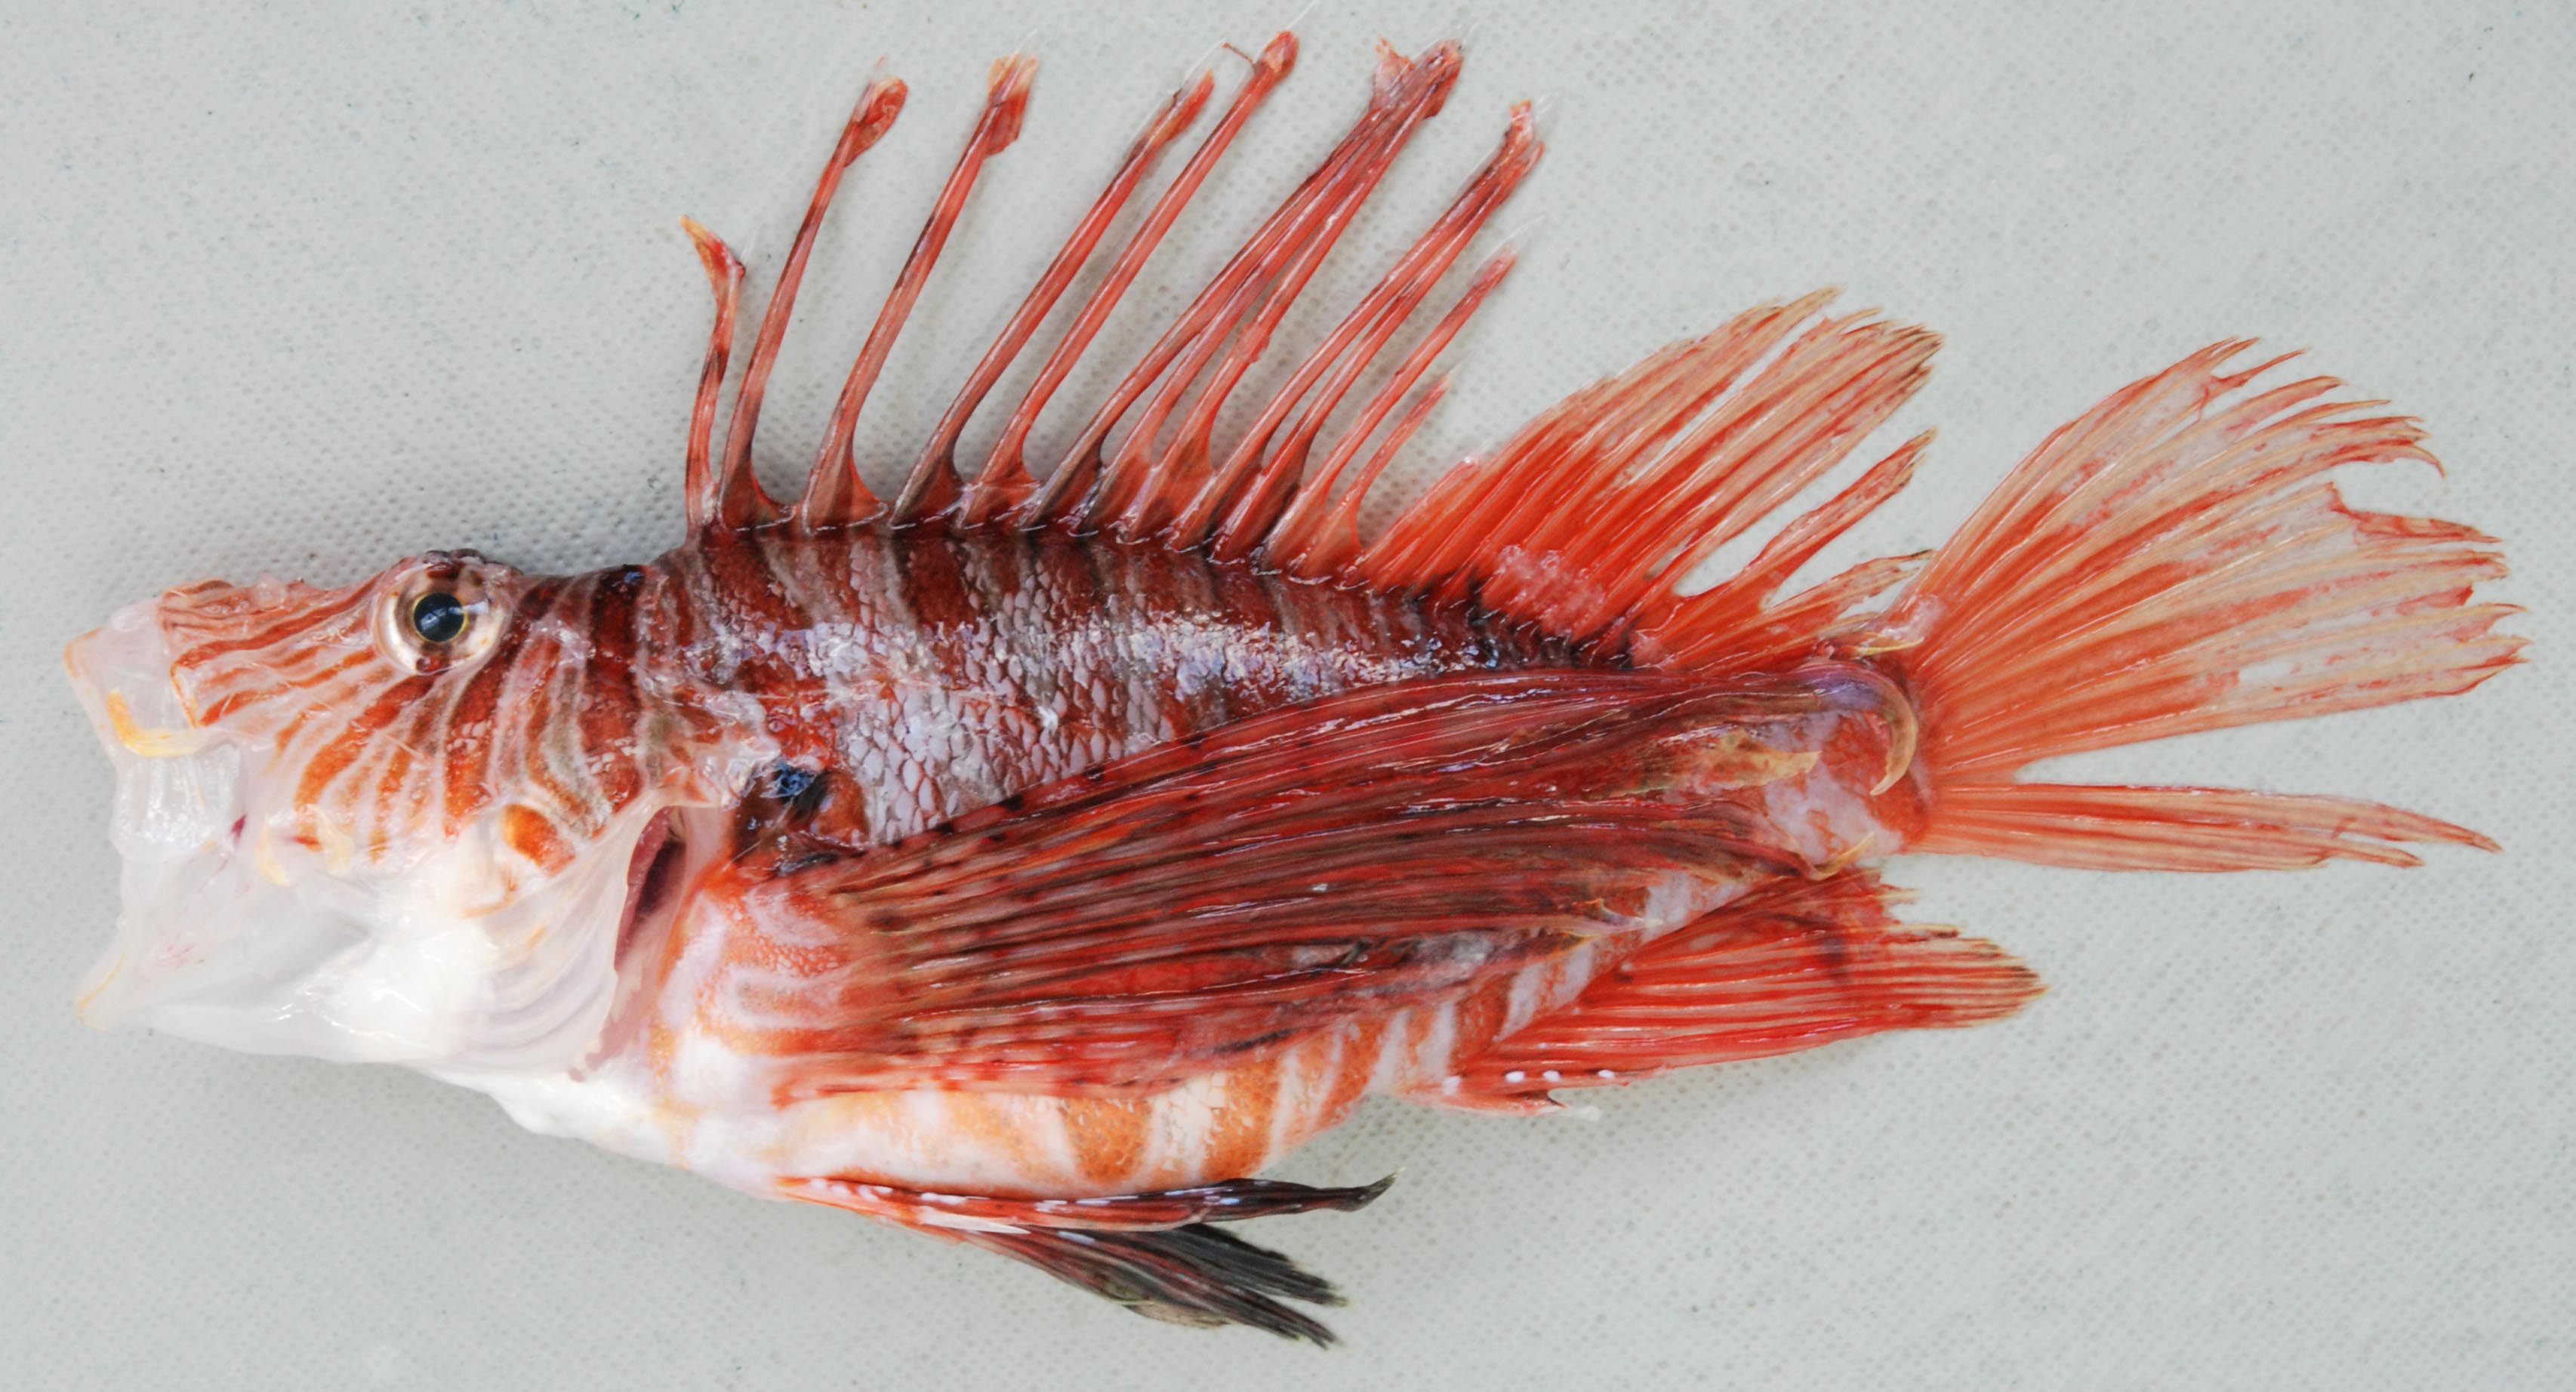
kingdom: Animalia
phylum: Chordata
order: Scorpaeniformes
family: Scorpaenidae
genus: Pterois
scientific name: Pterois russelii
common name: Plaintail firefish
